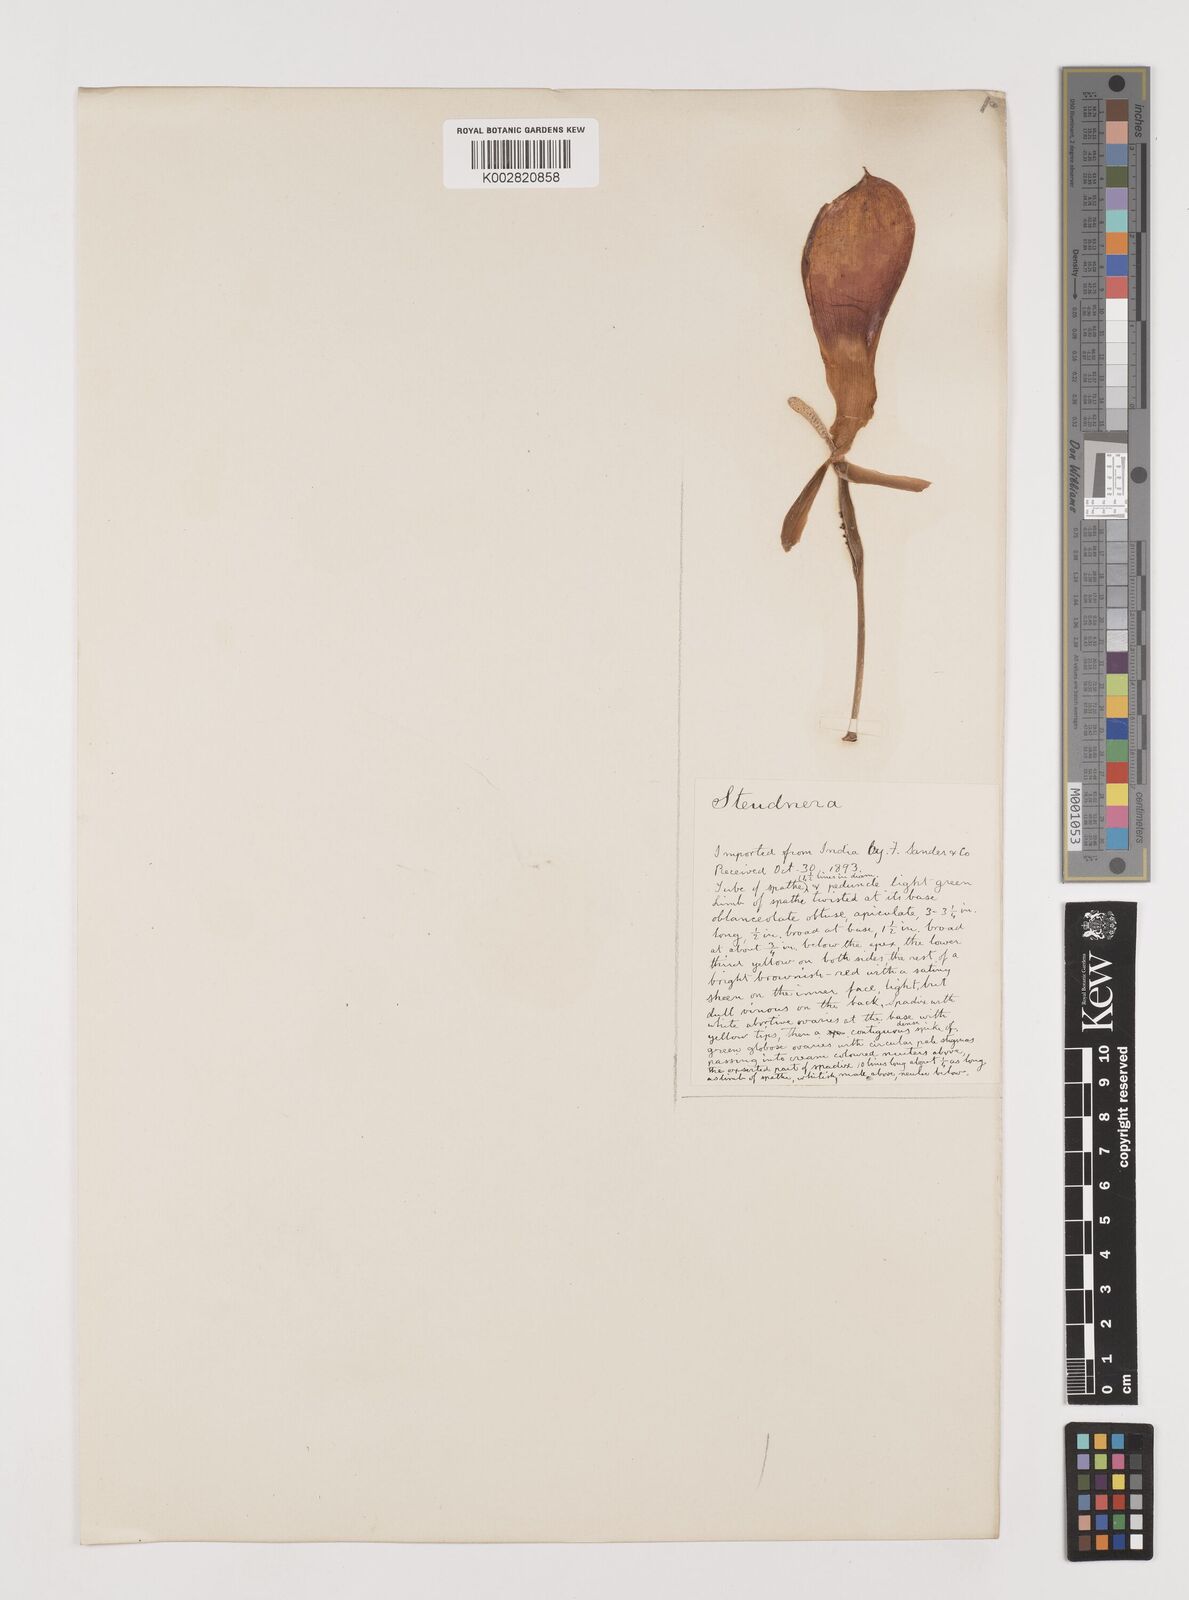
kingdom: Plantae
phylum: Tracheophyta
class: Liliopsida
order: Alismatales
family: Araceae
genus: Steudnera
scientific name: Steudnera
